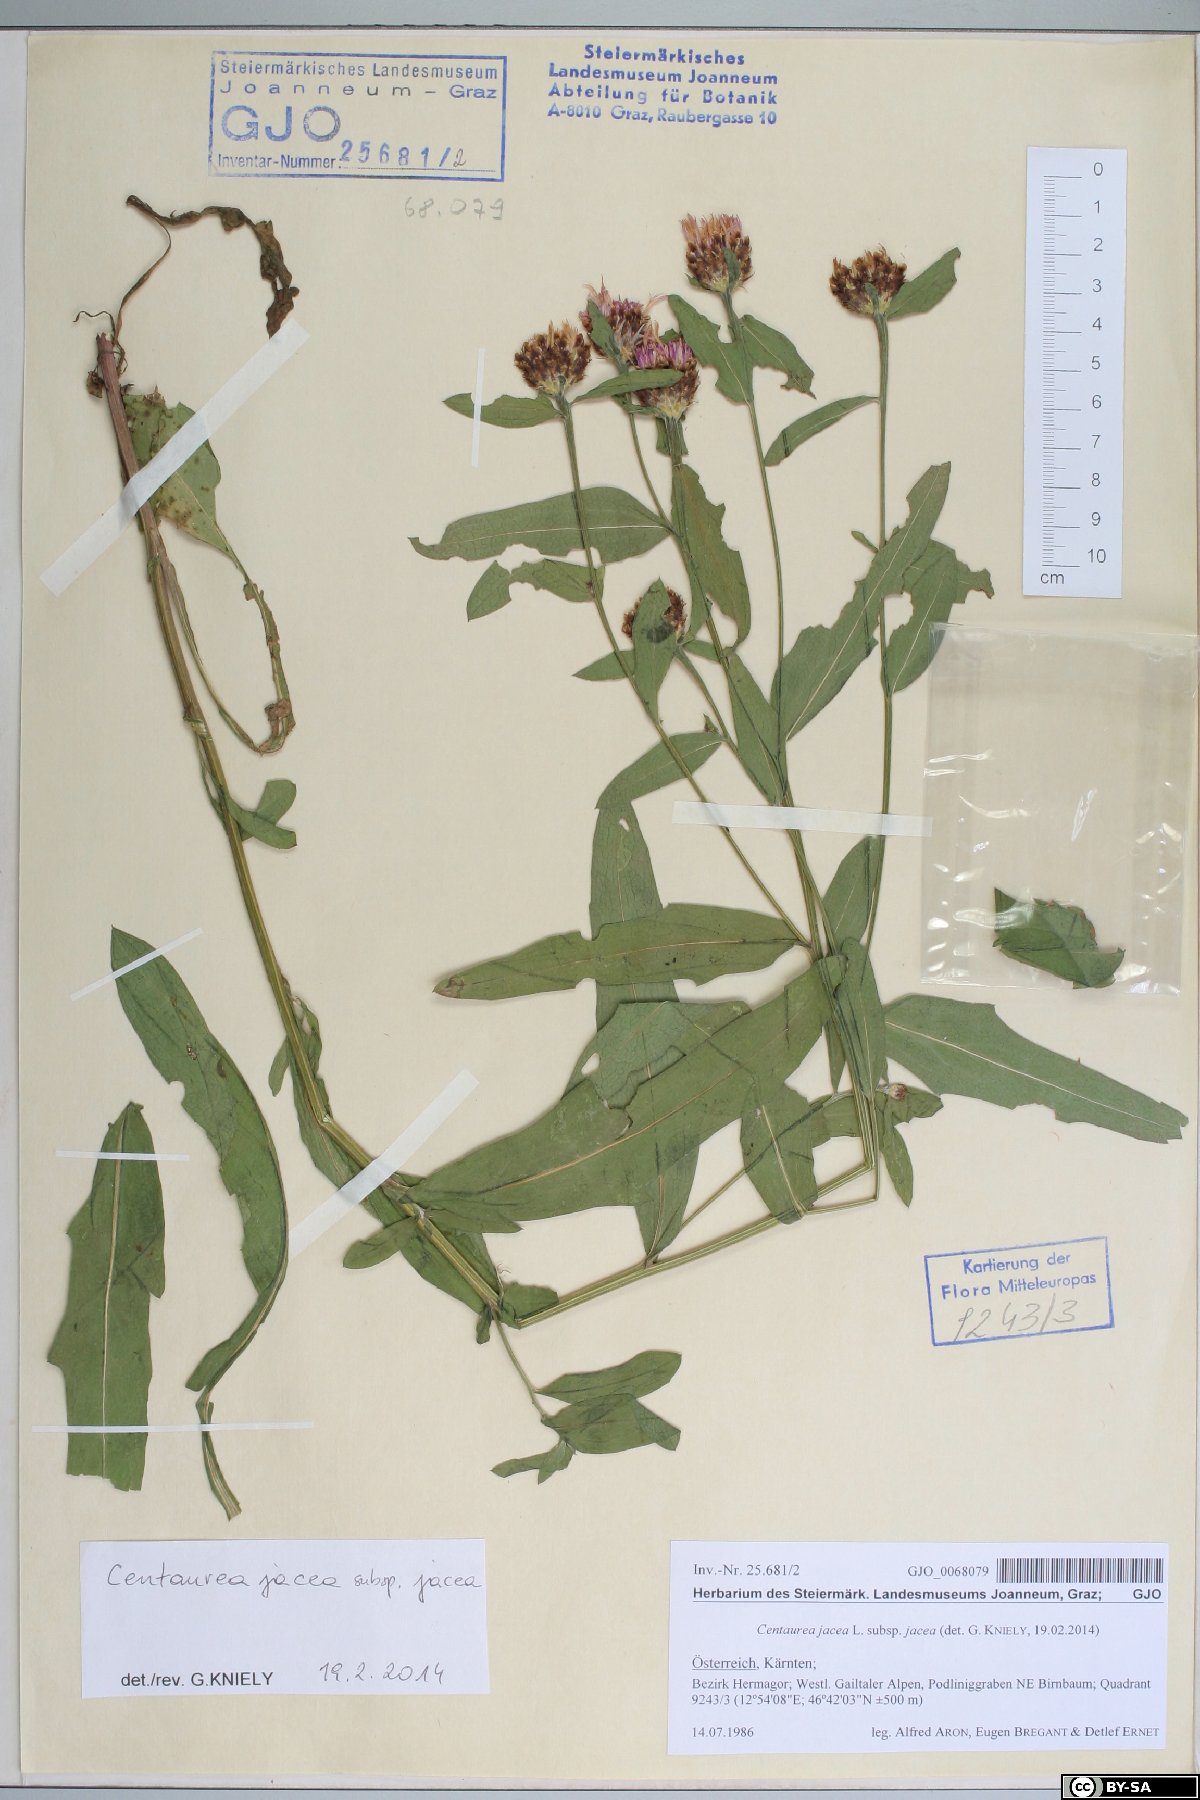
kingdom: Plantae
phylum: Tracheophyta
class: Magnoliopsida
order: Asterales
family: Asteraceae
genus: Centaurea
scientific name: Centaurea jacea
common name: Brown knapweed
